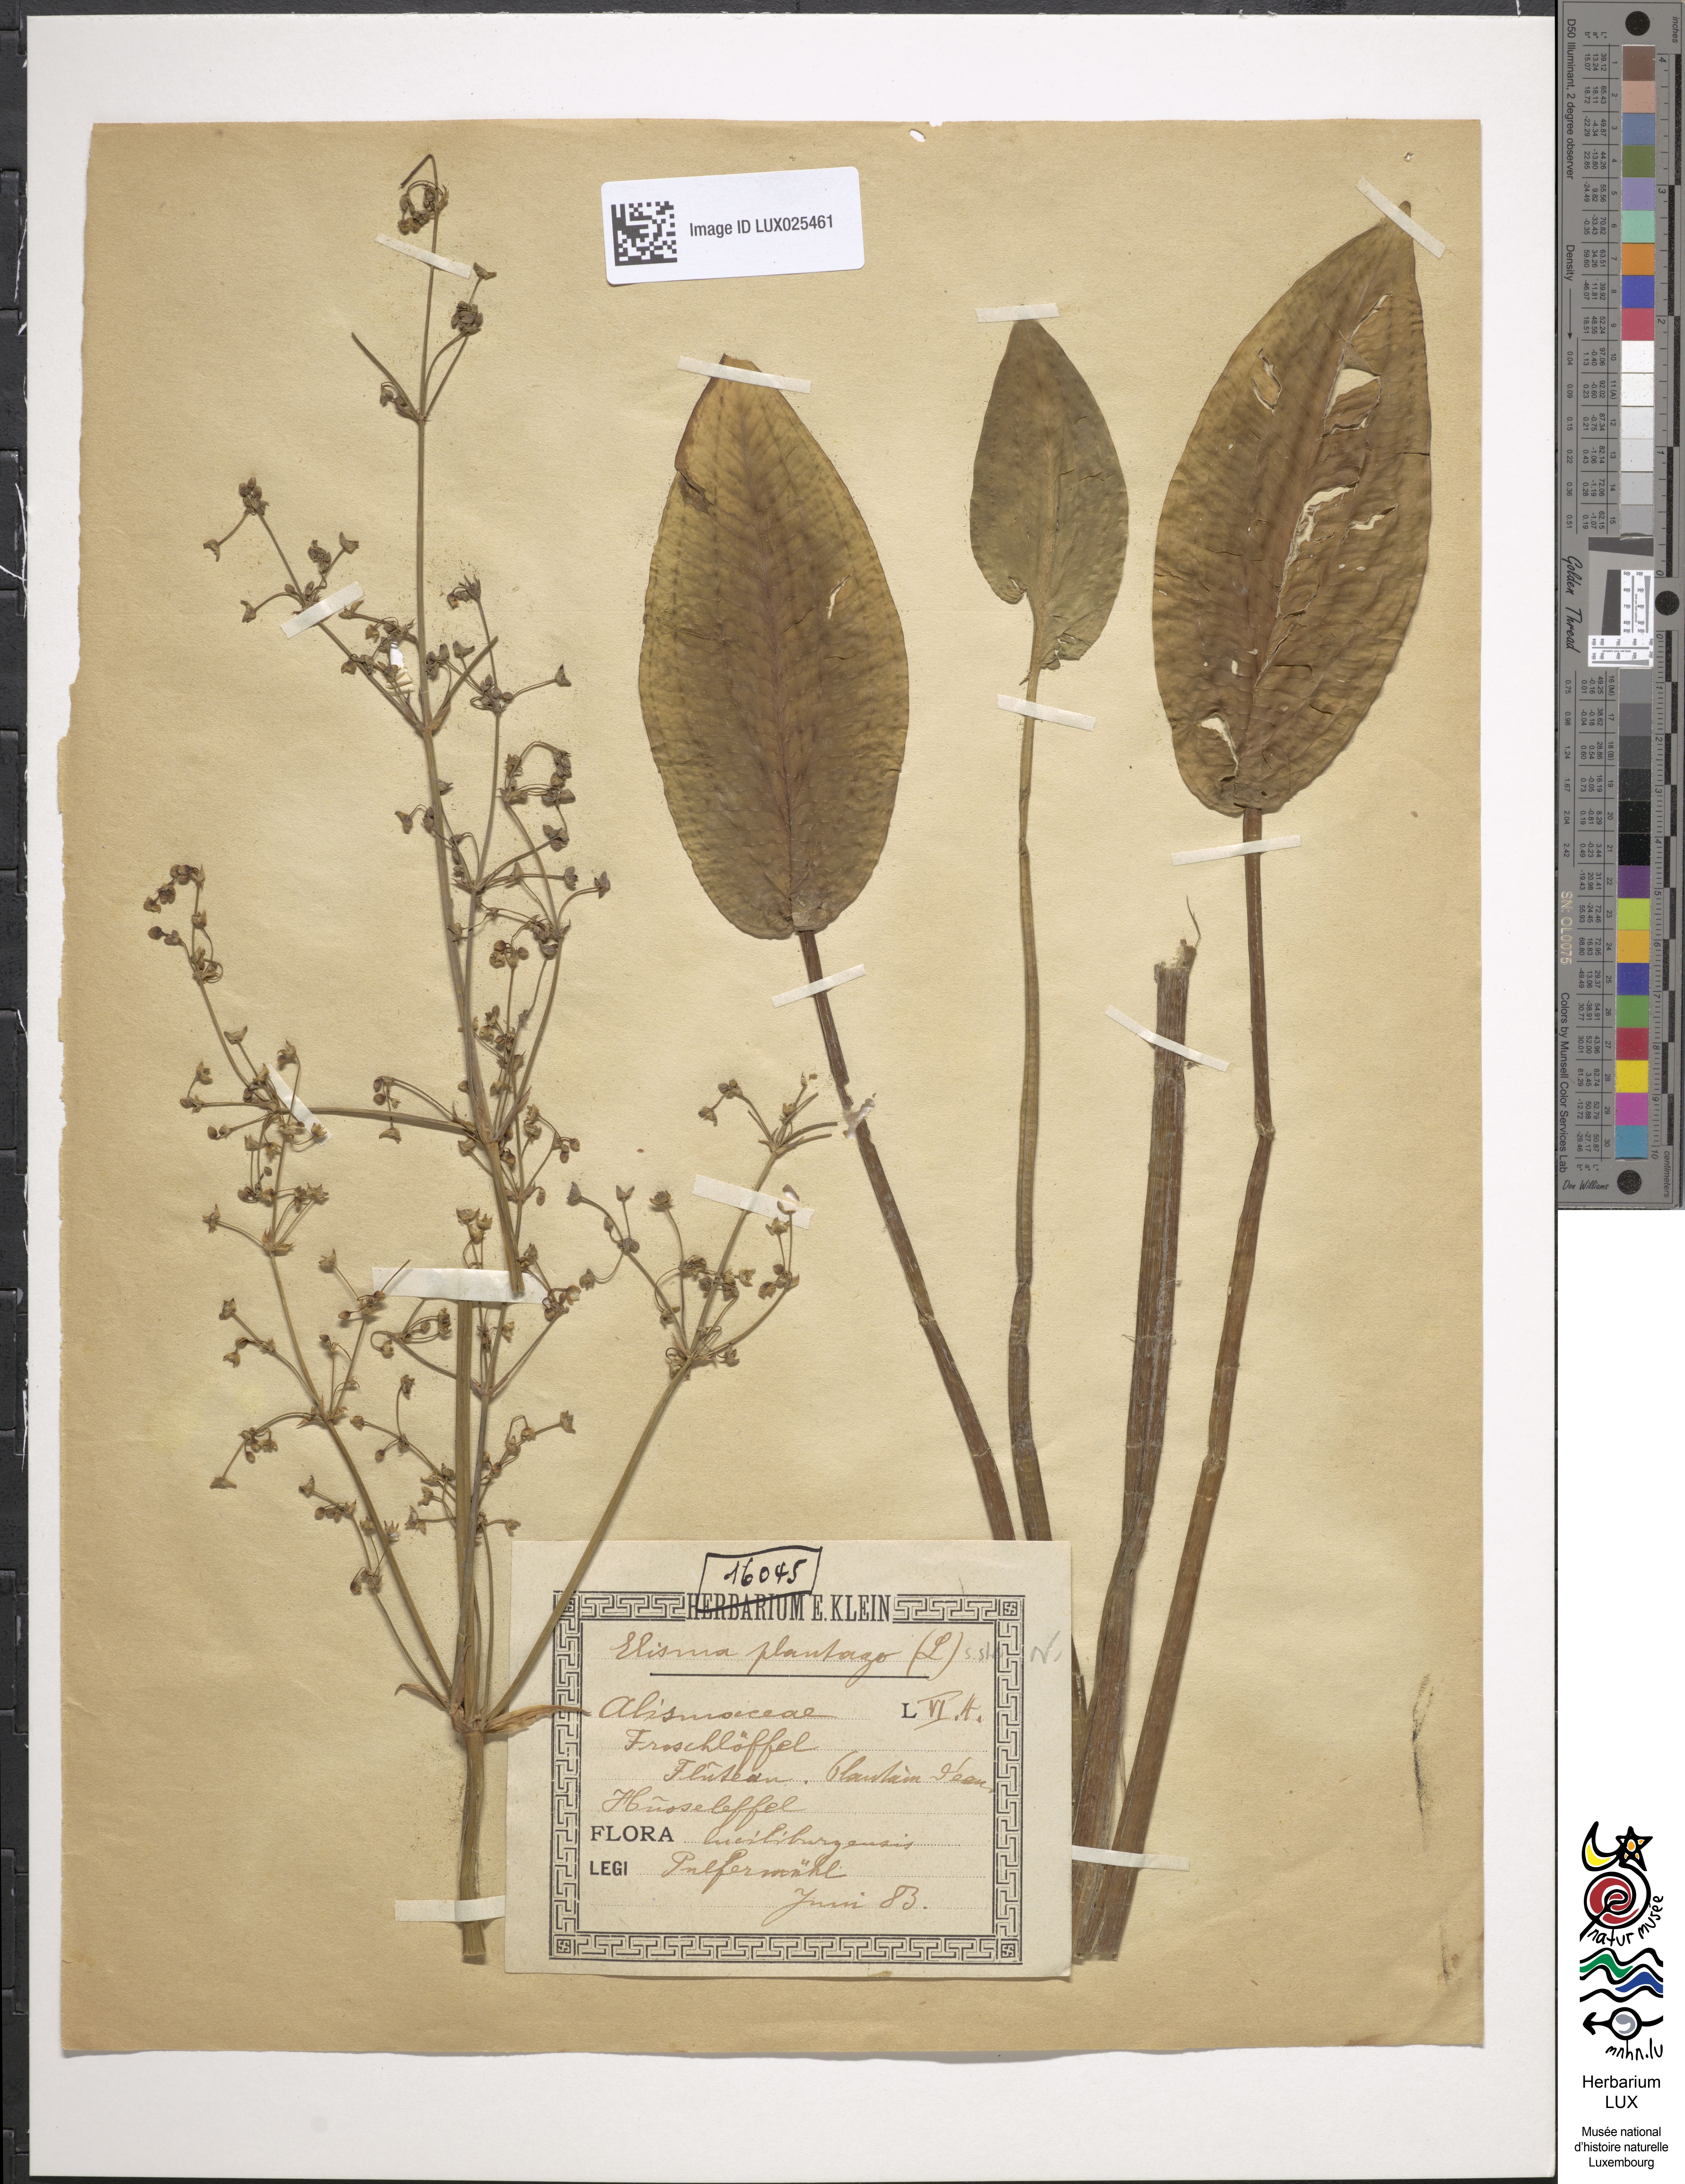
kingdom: Plantae
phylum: Tracheophyta
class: Liliopsida
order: Alismatales
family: Alismataceae
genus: Alisma
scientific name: Alisma plantago-aquatica
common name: Water-plantain
